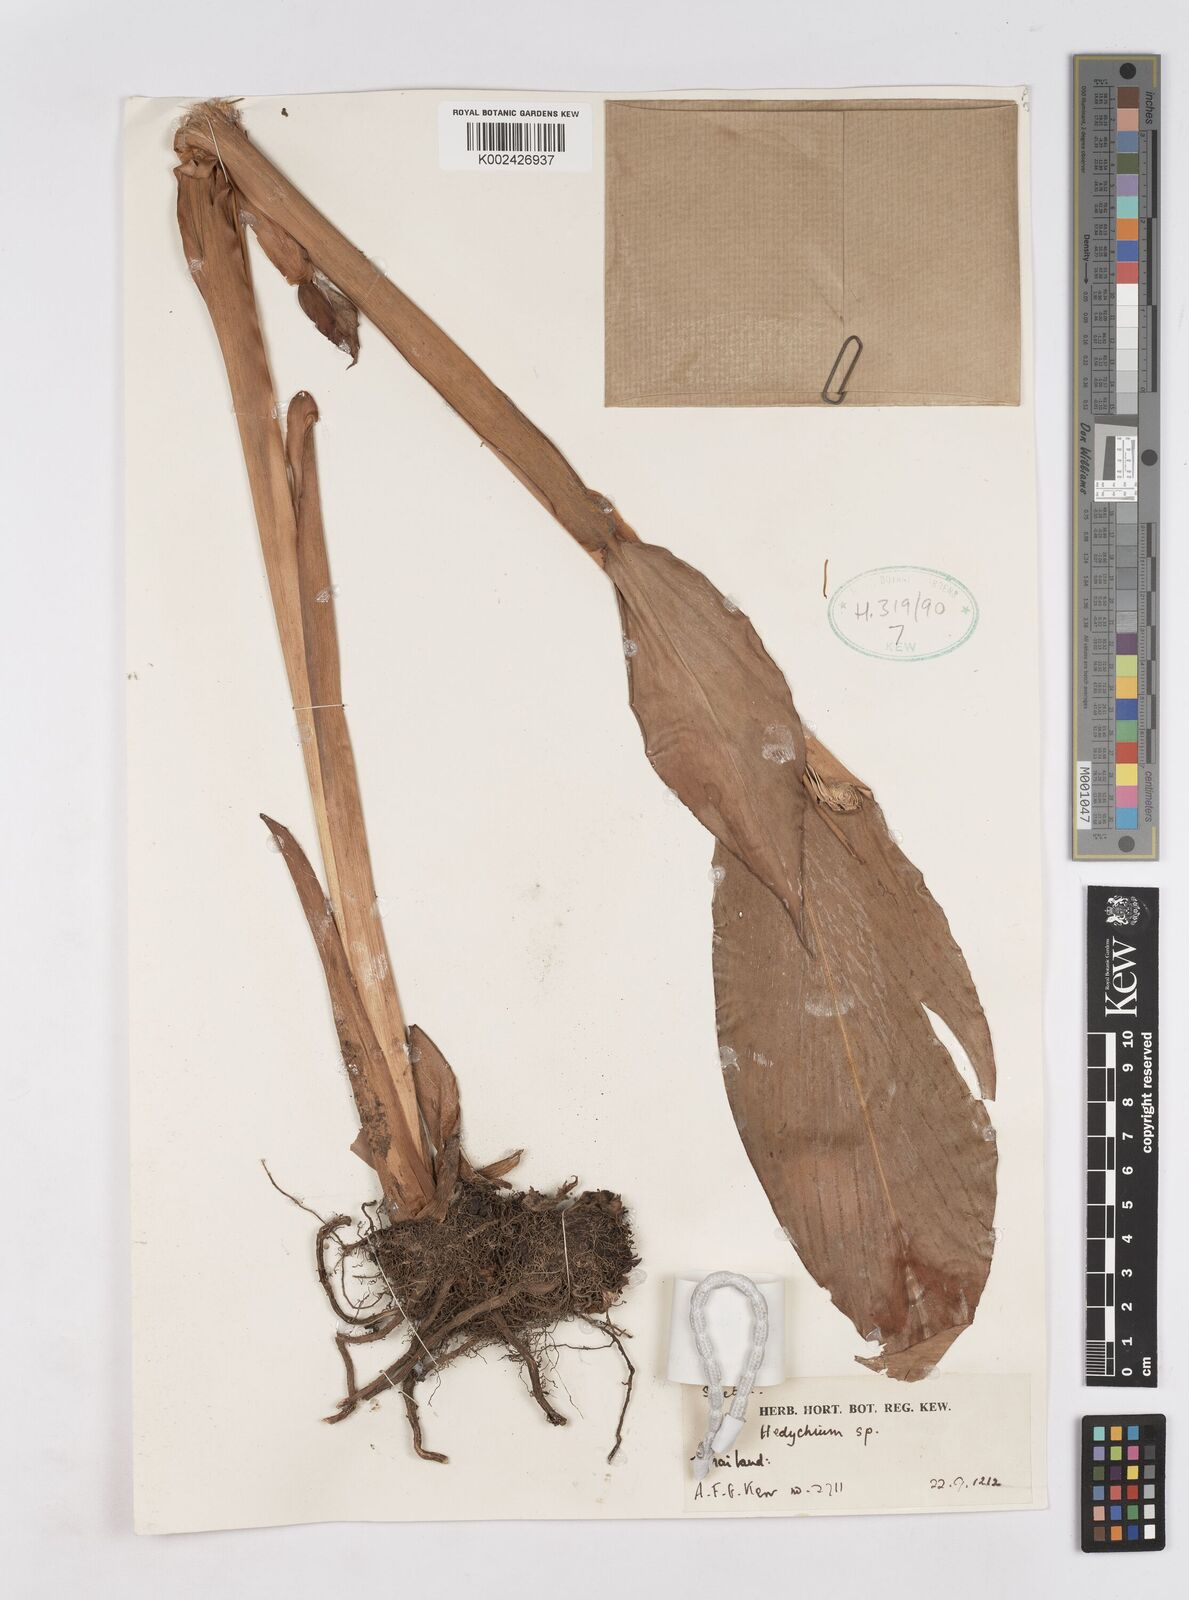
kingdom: Plantae
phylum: Tracheophyta
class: Liliopsida
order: Zingiberales
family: Zingiberaceae
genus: Hedychium
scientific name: Hedychium speciosum
